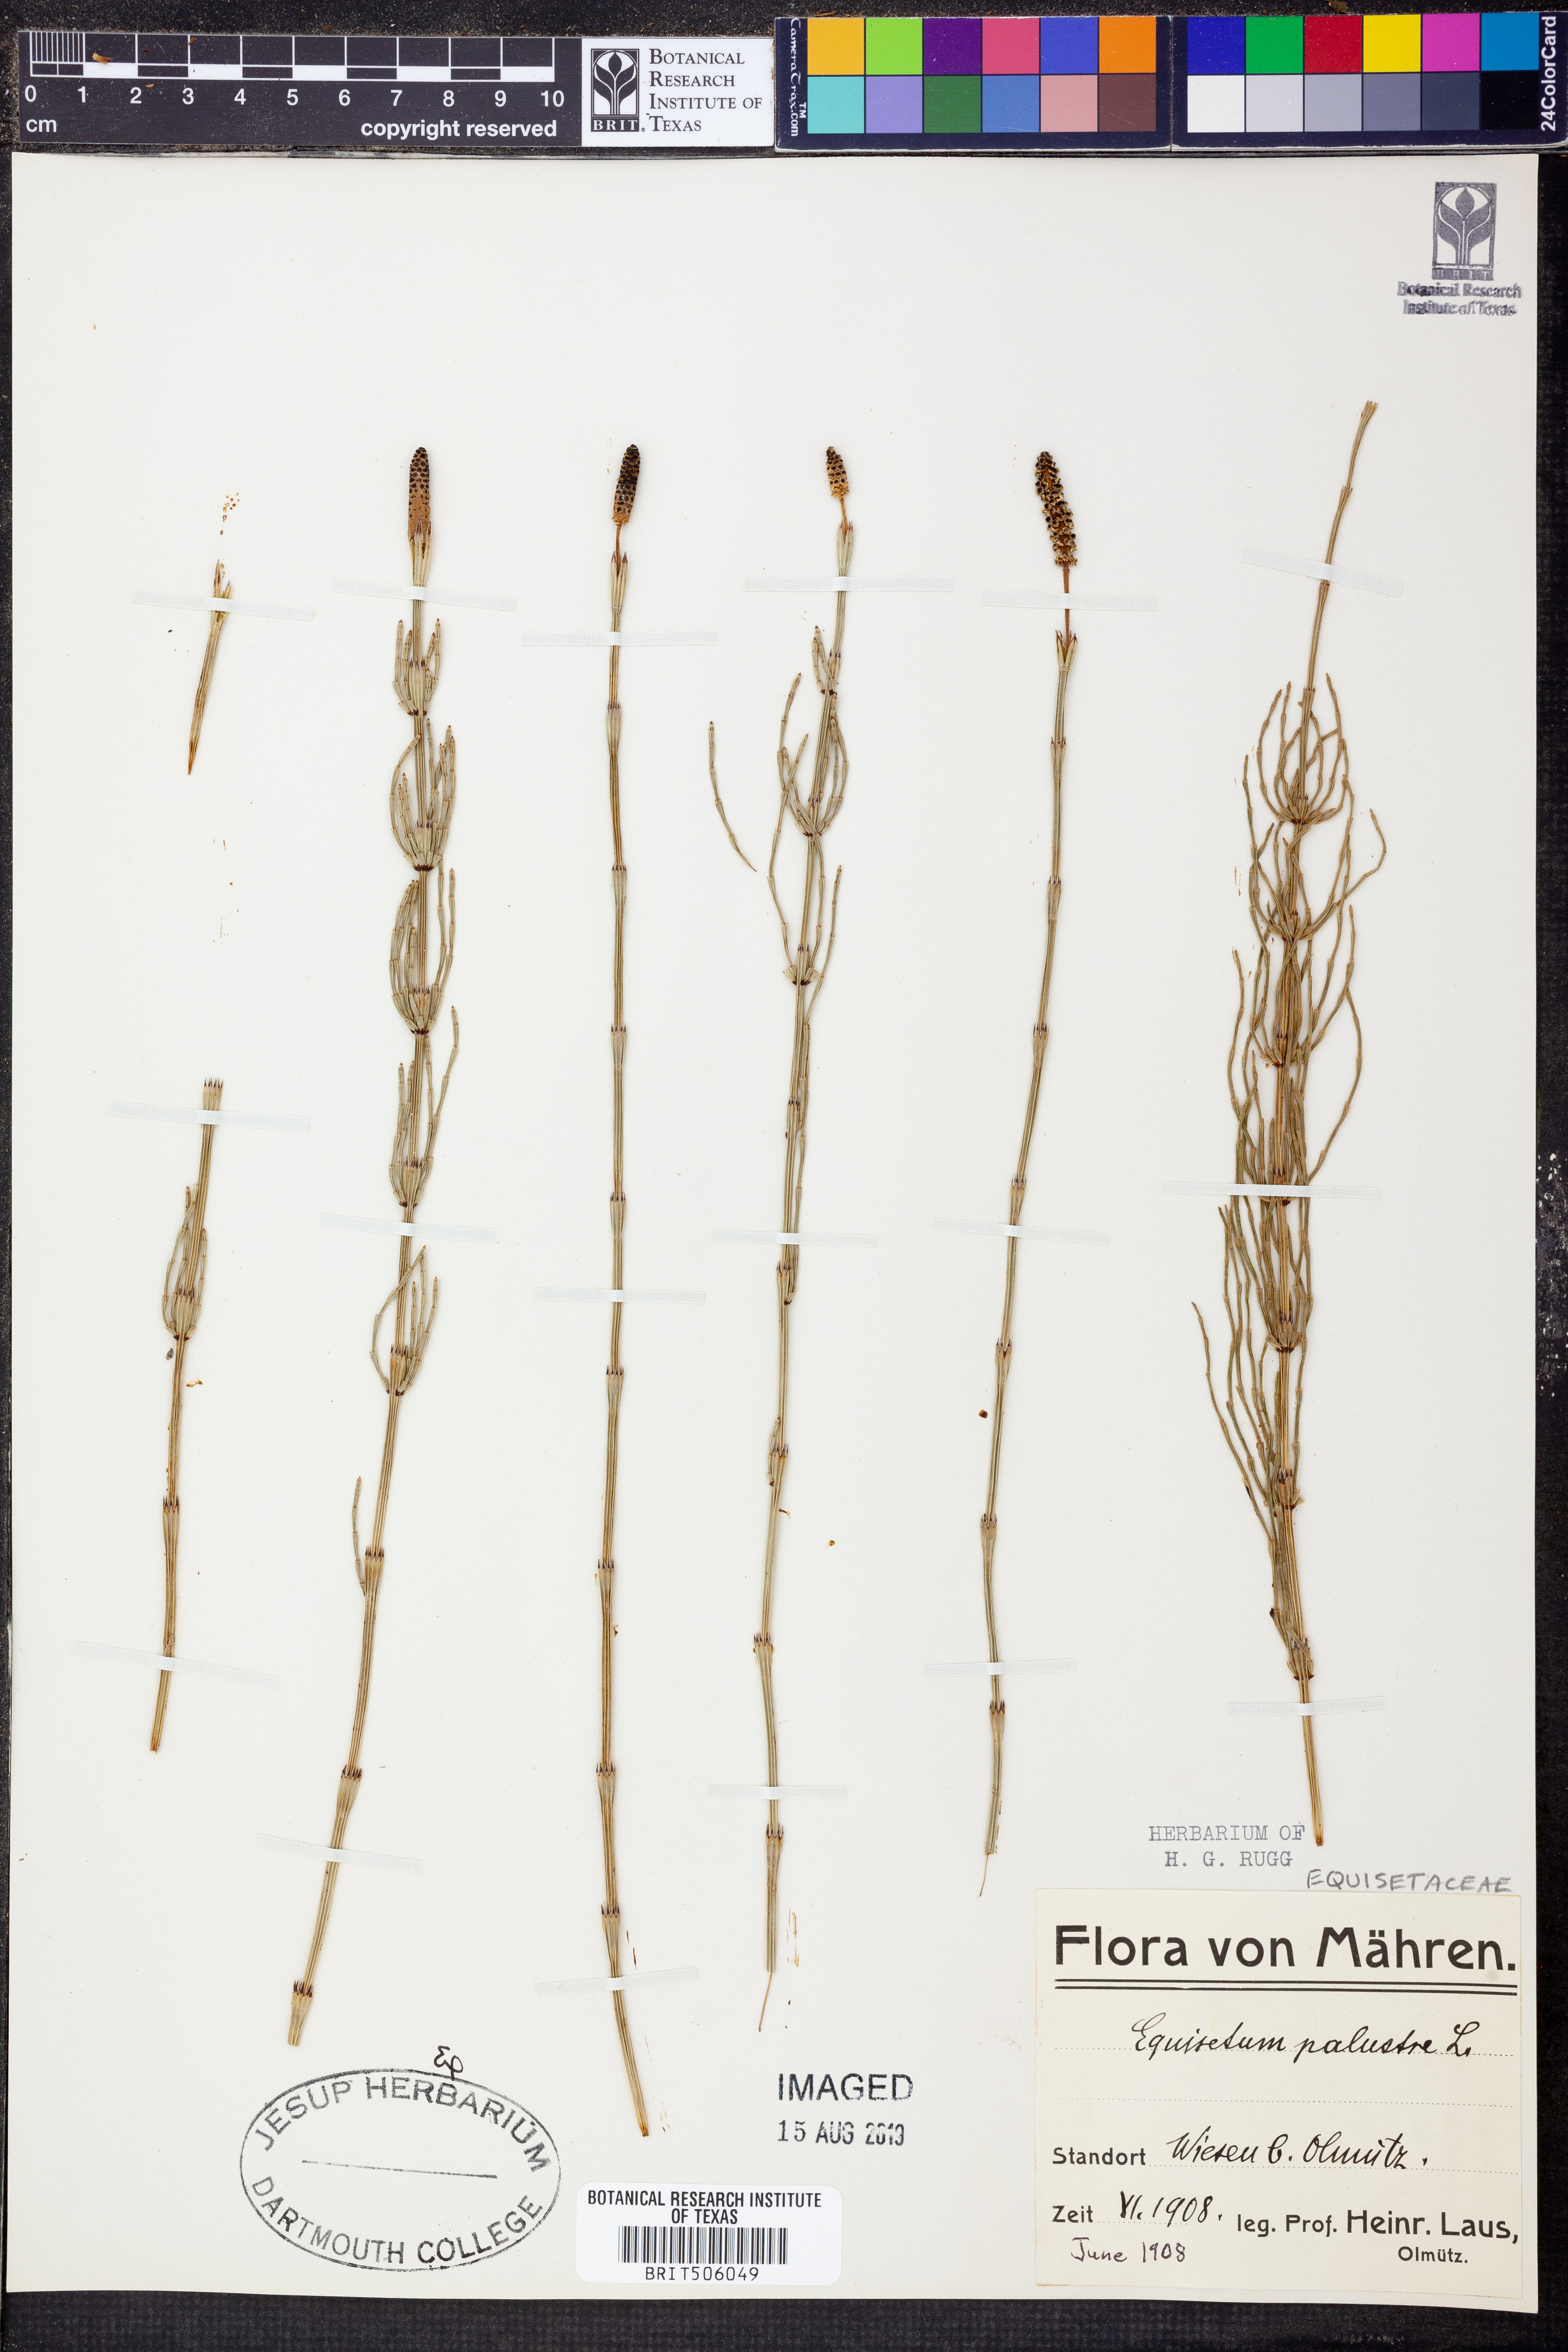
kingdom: Plantae
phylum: Tracheophyta
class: Polypodiopsida
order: Equisetales
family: Equisetaceae
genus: Equisetum
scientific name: Equisetum palustre
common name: Marsh horsetail
